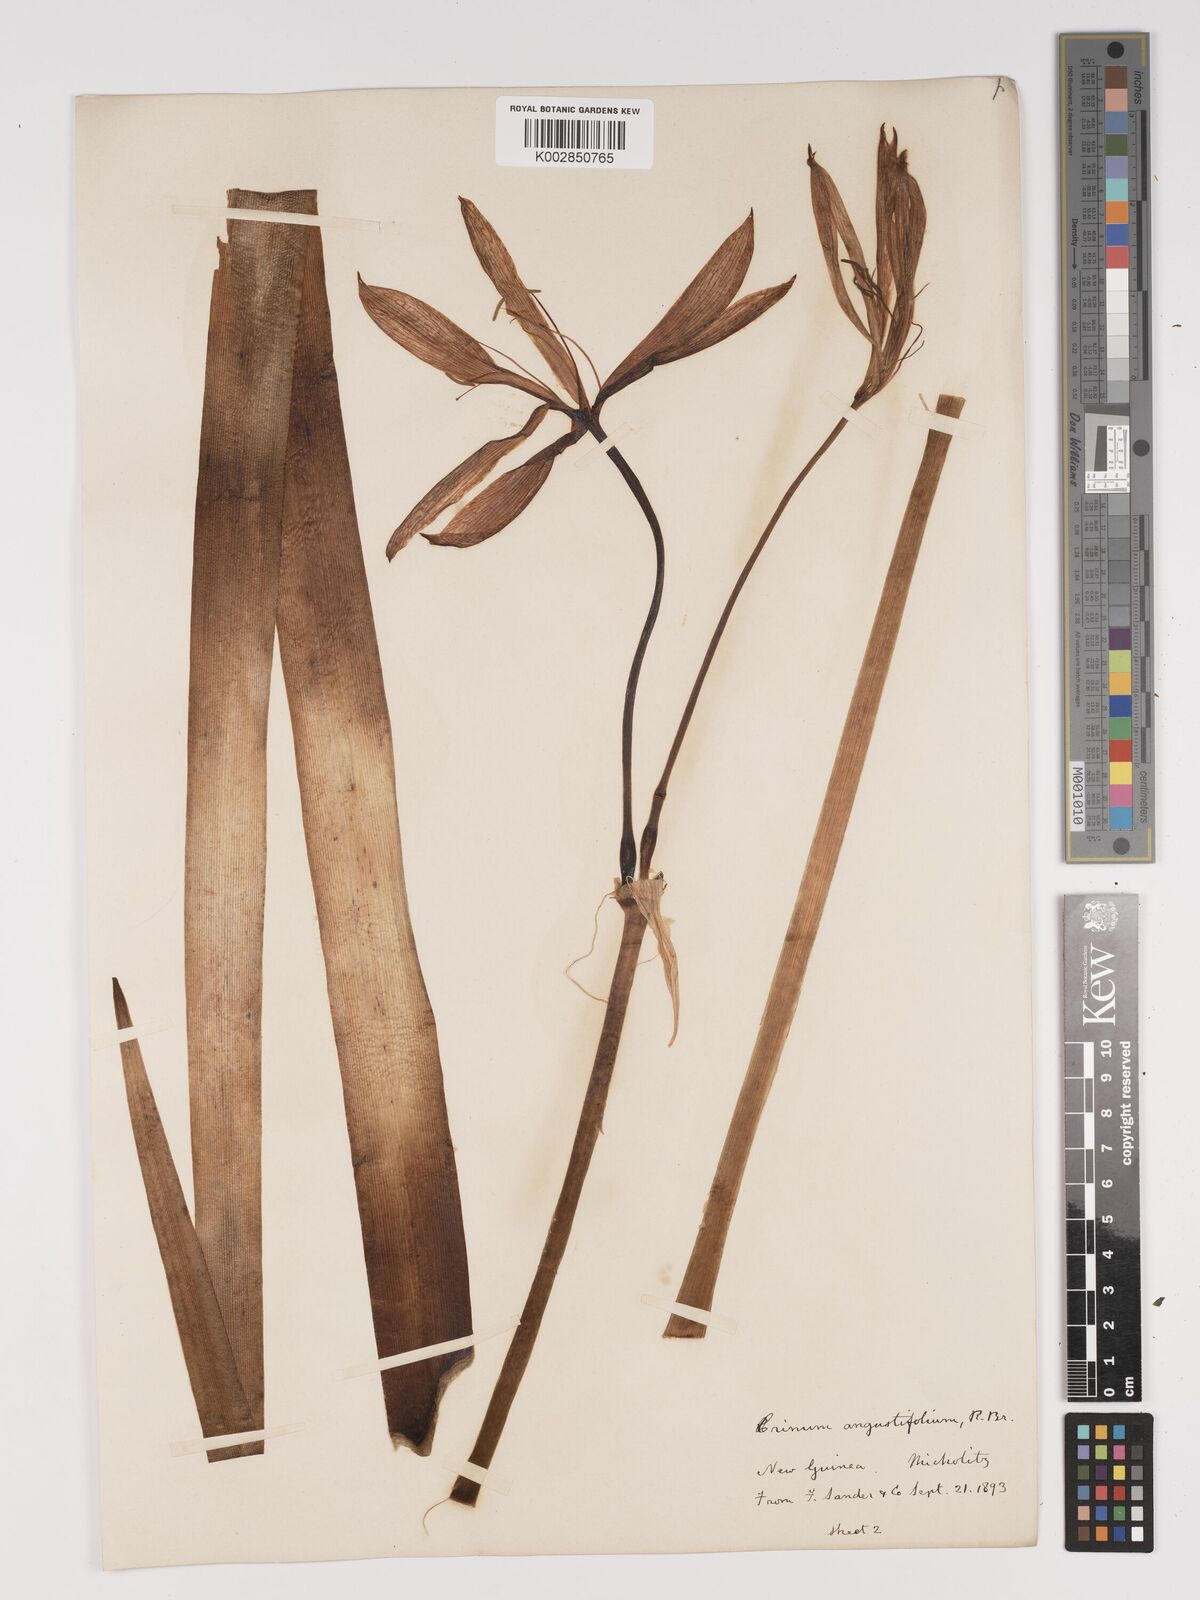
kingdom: Plantae
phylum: Tracheophyta
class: Liliopsida
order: Asparagales
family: Amaryllidaceae
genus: Crinum
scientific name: Crinum arenarium
